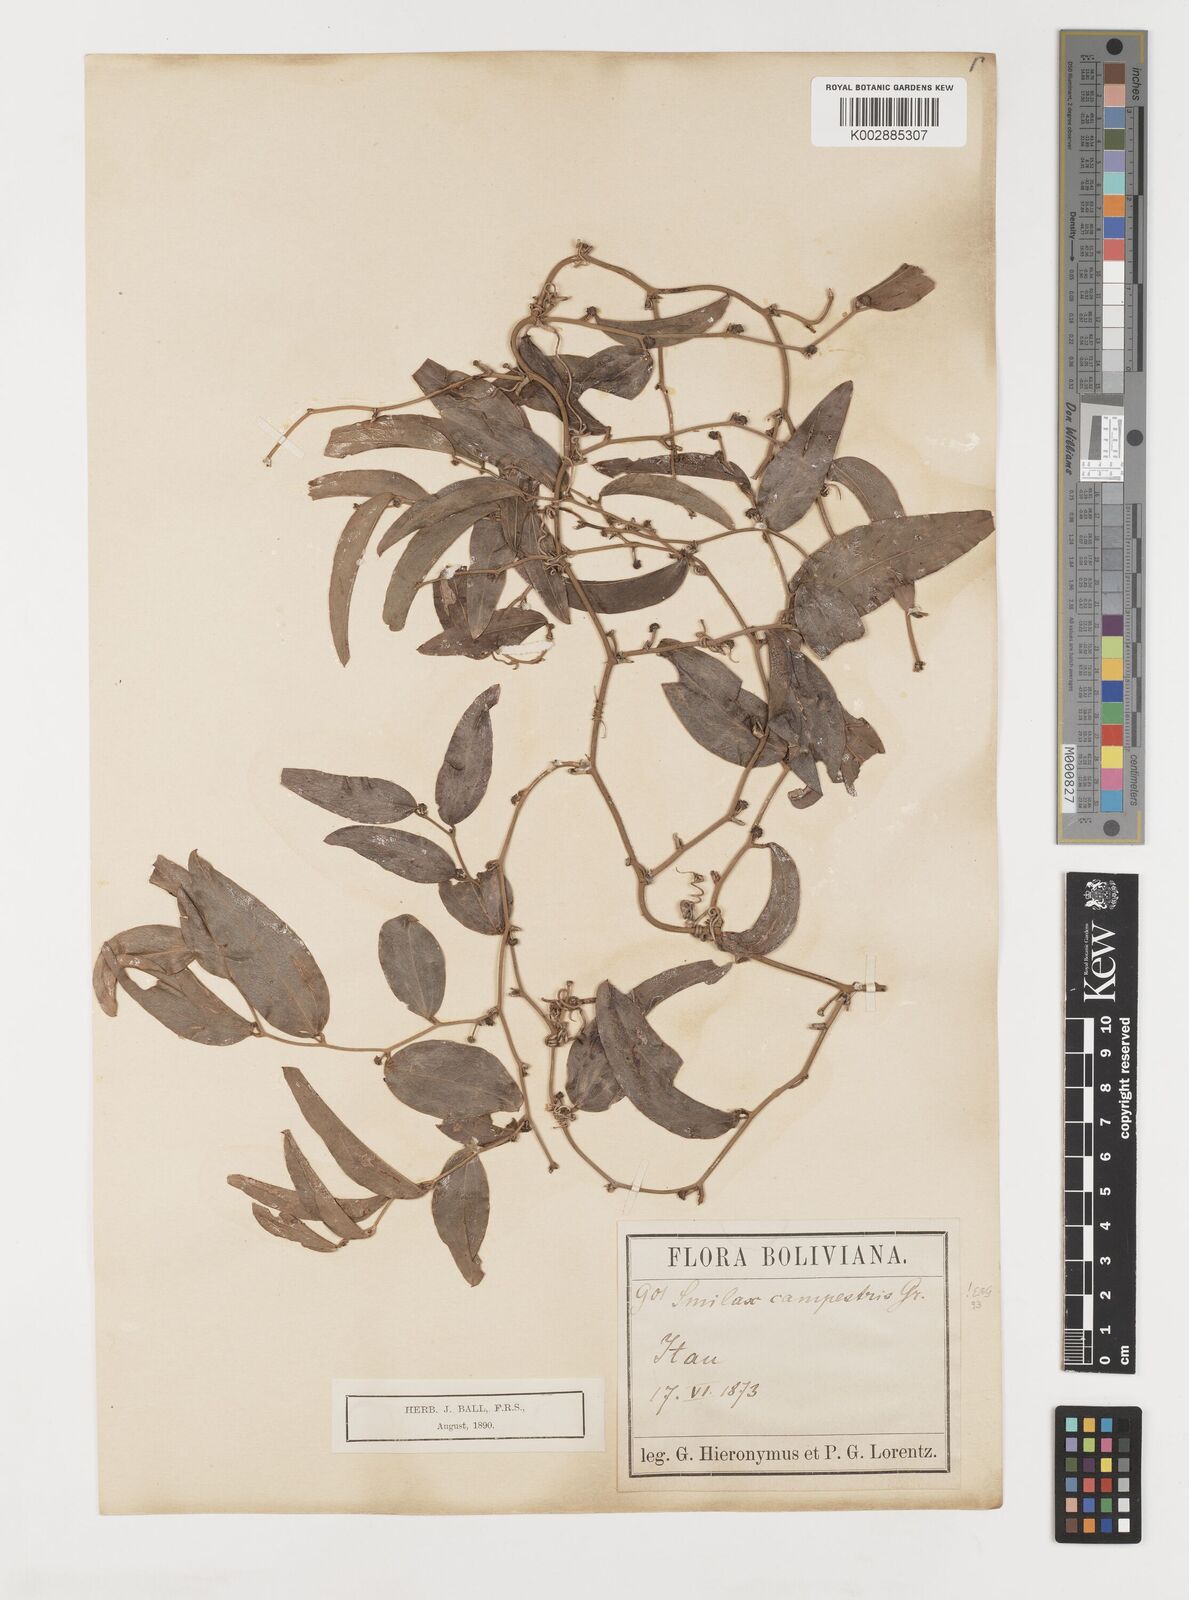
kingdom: Plantae
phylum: Tracheophyta
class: Liliopsida
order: Liliales
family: Smilacaceae
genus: Smilax
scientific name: Smilax campestris
